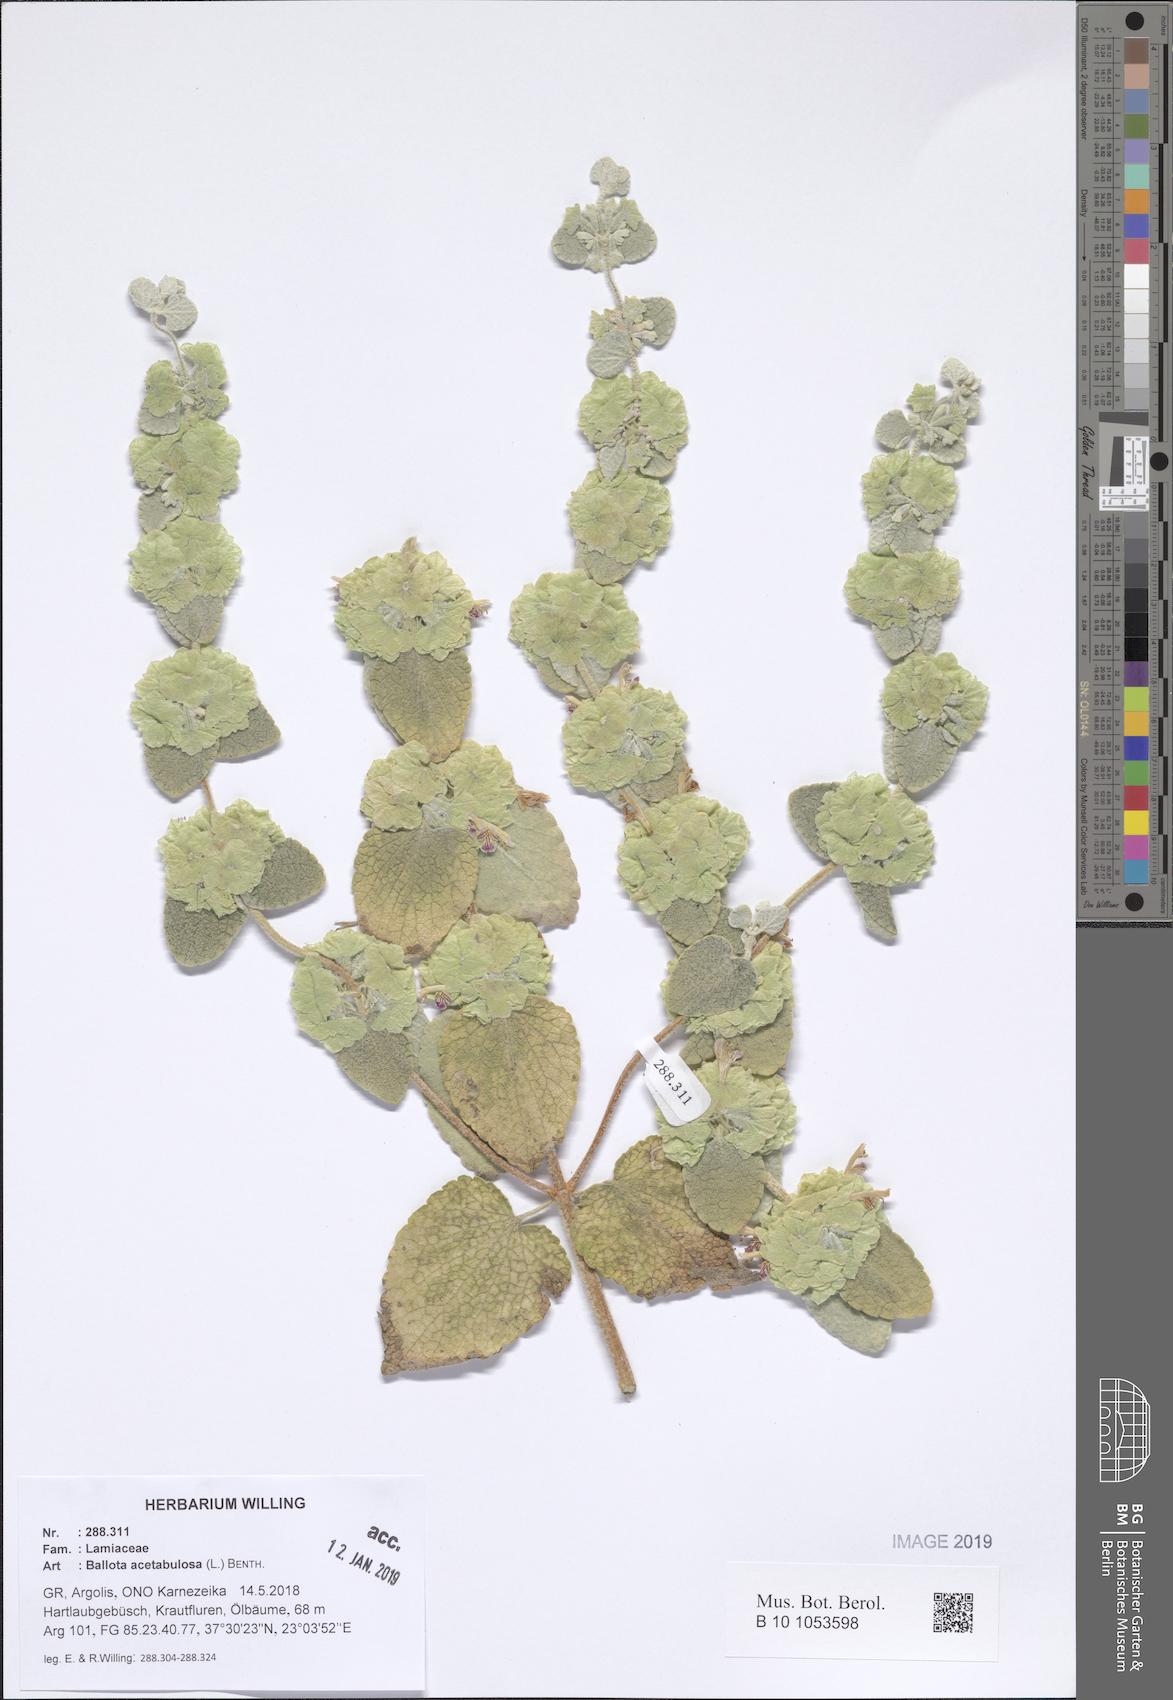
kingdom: Plantae
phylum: Tracheophyta
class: Magnoliopsida
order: Lamiales
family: Lamiaceae
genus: Pseudodictamnus
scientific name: Pseudodictamnus acetabulosus
